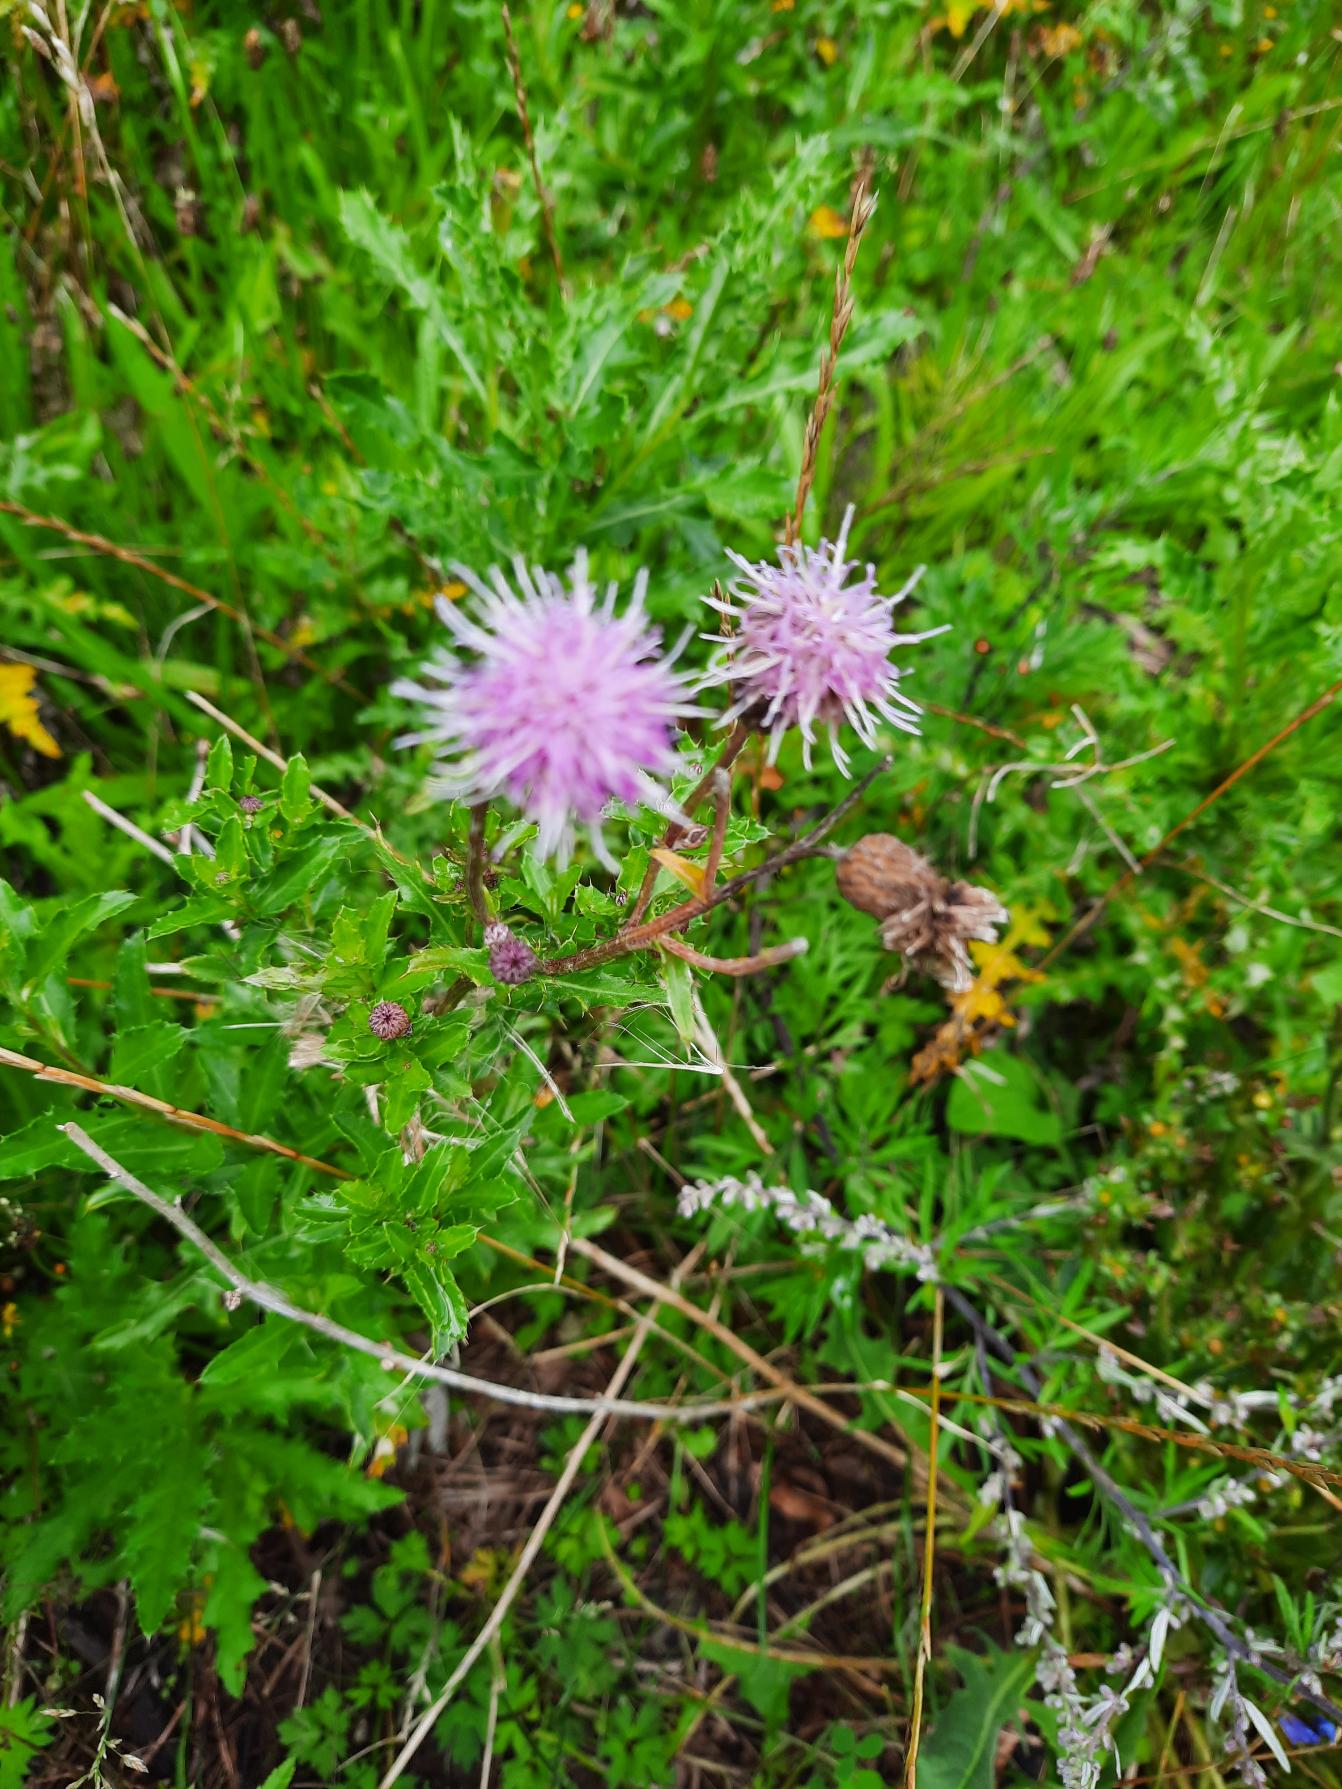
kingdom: Plantae
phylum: Tracheophyta
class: Magnoliopsida
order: Asterales
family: Asteraceae
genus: Cirsium
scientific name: Cirsium arvense
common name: Ager-tidsel
